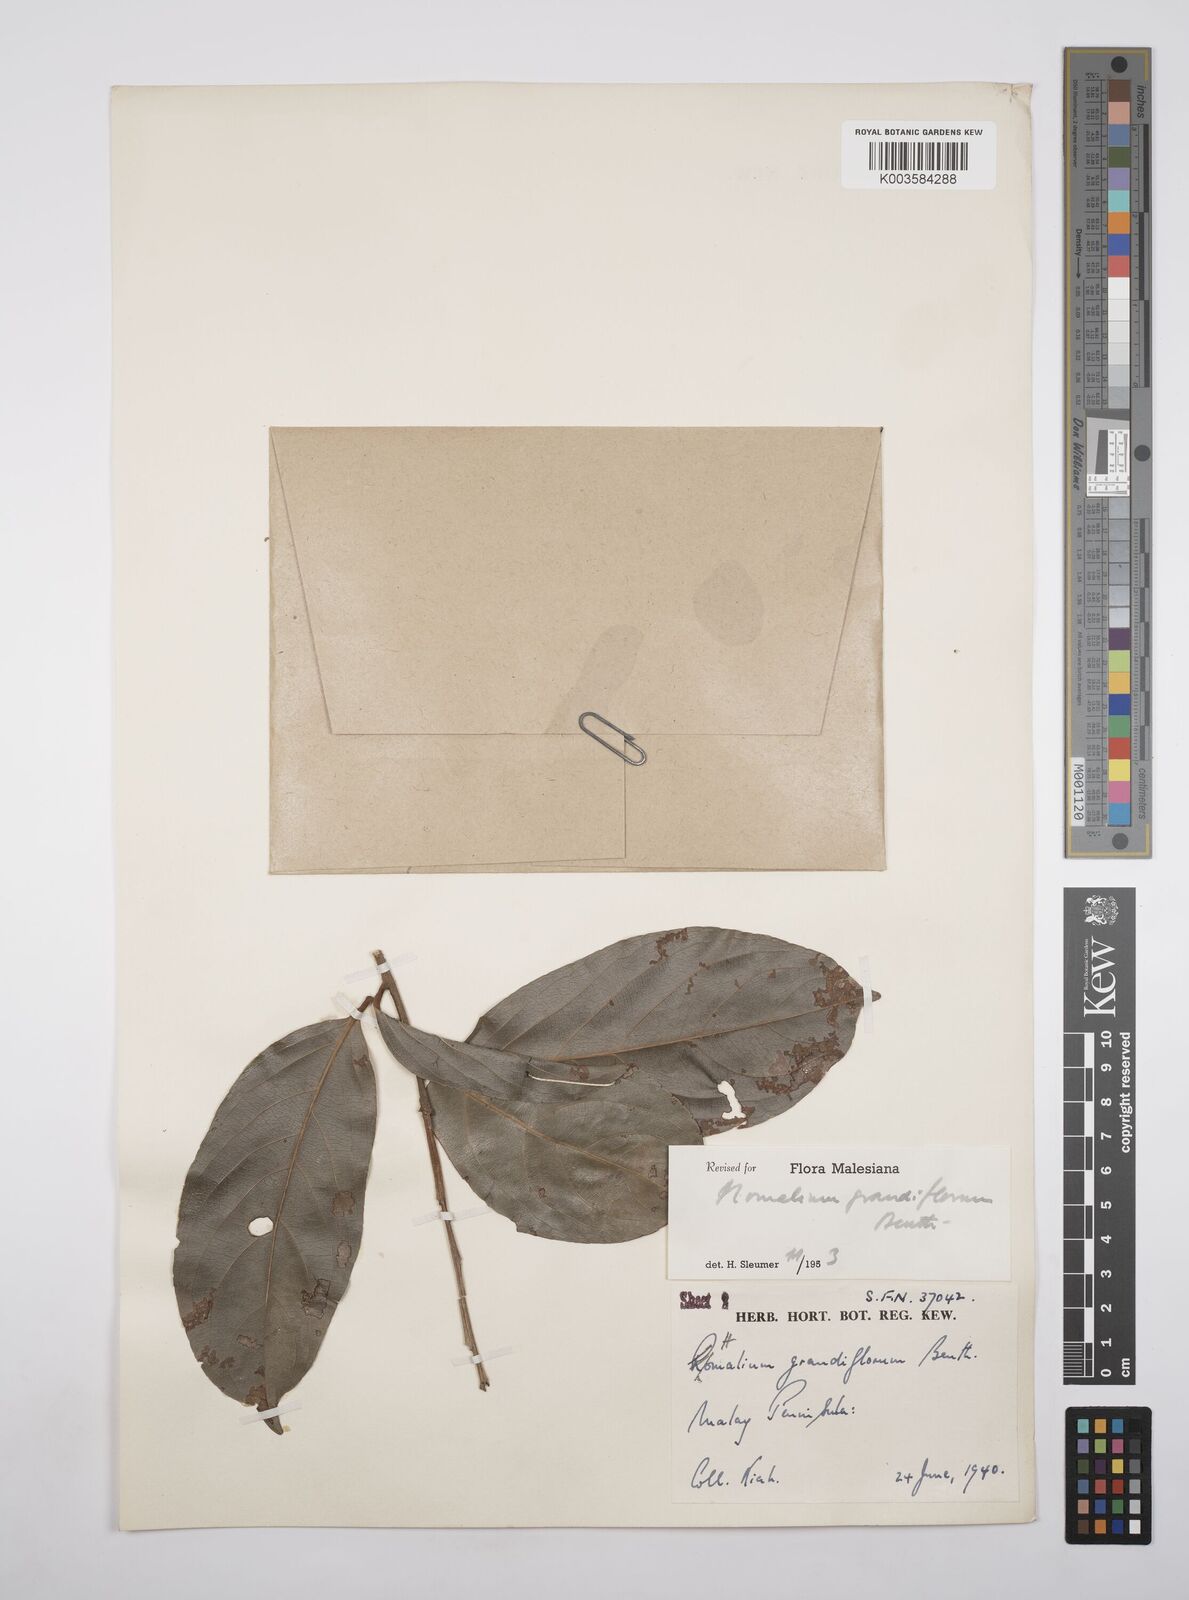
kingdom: Plantae
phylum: Tracheophyta
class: Magnoliopsida
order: Malpighiales
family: Salicaceae
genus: Homalium
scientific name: Homalium grandiflorum
